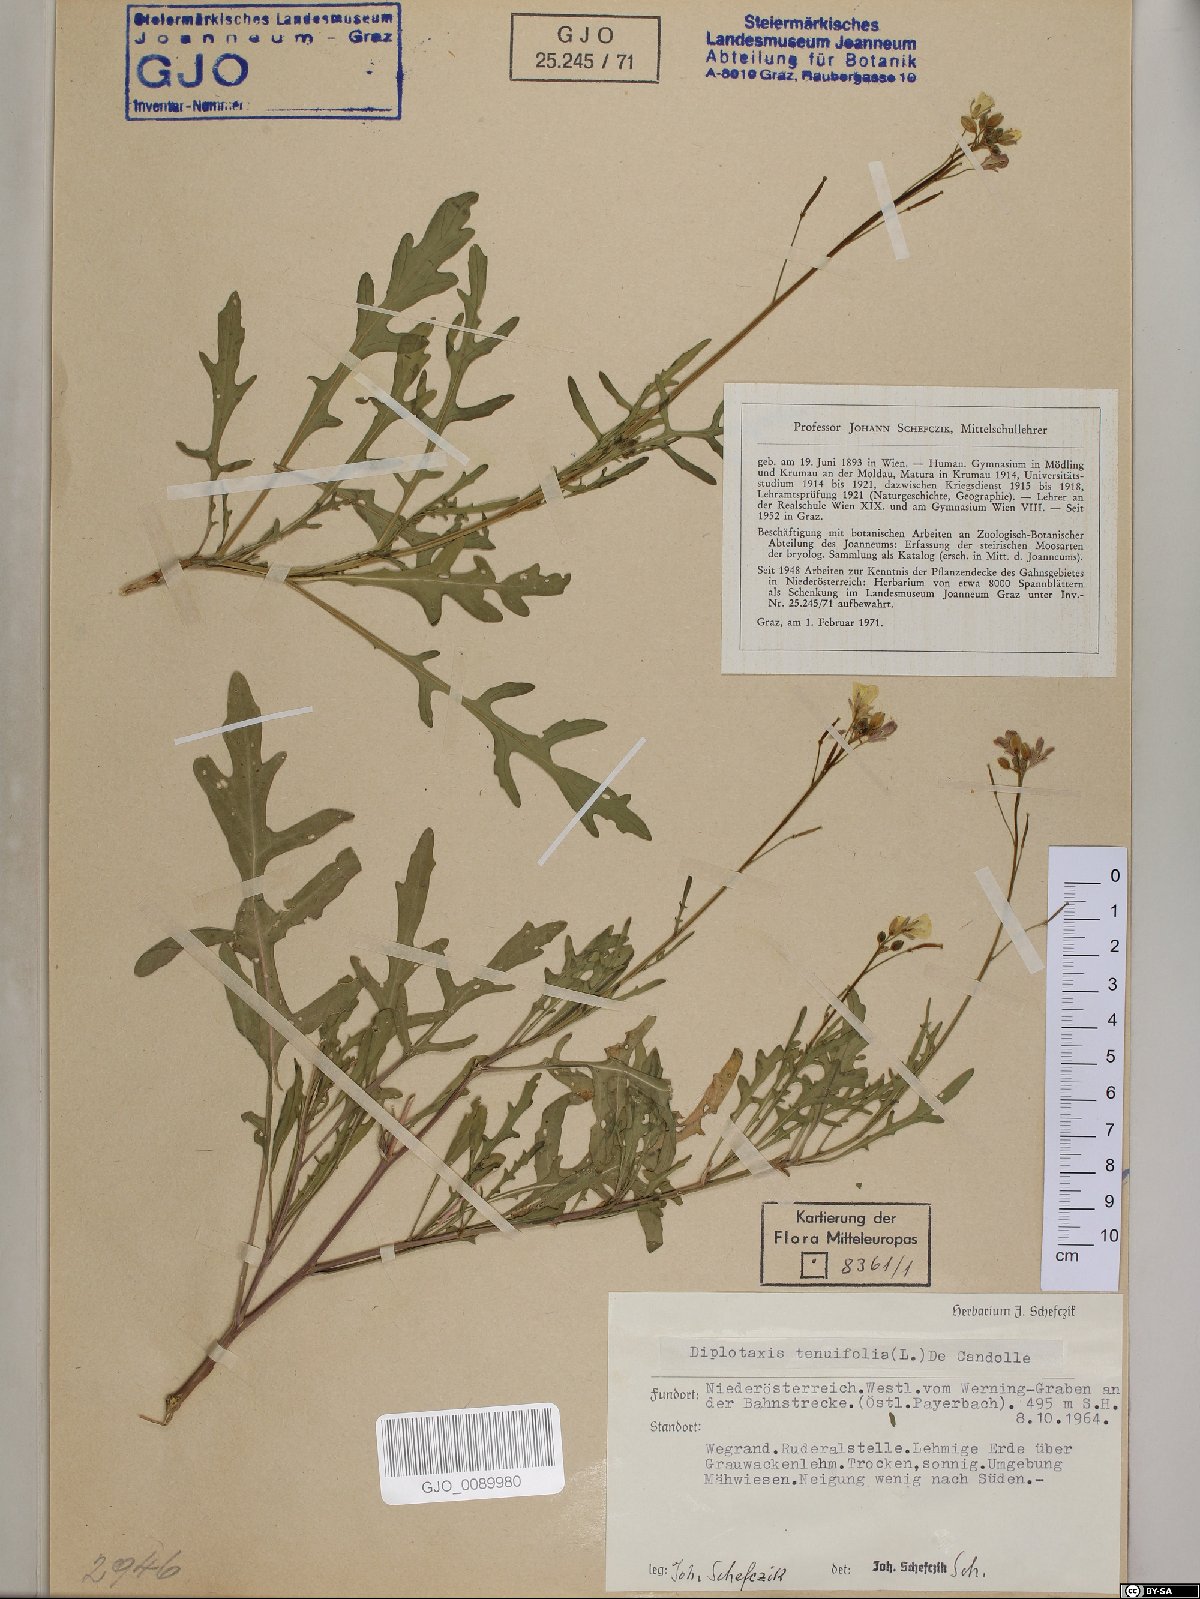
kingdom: Plantae
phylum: Tracheophyta
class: Magnoliopsida
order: Brassicales
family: Brassicaceae
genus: Diplotaxis
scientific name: Diplotaxis tenuifolia
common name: Perennial wall-rocket
